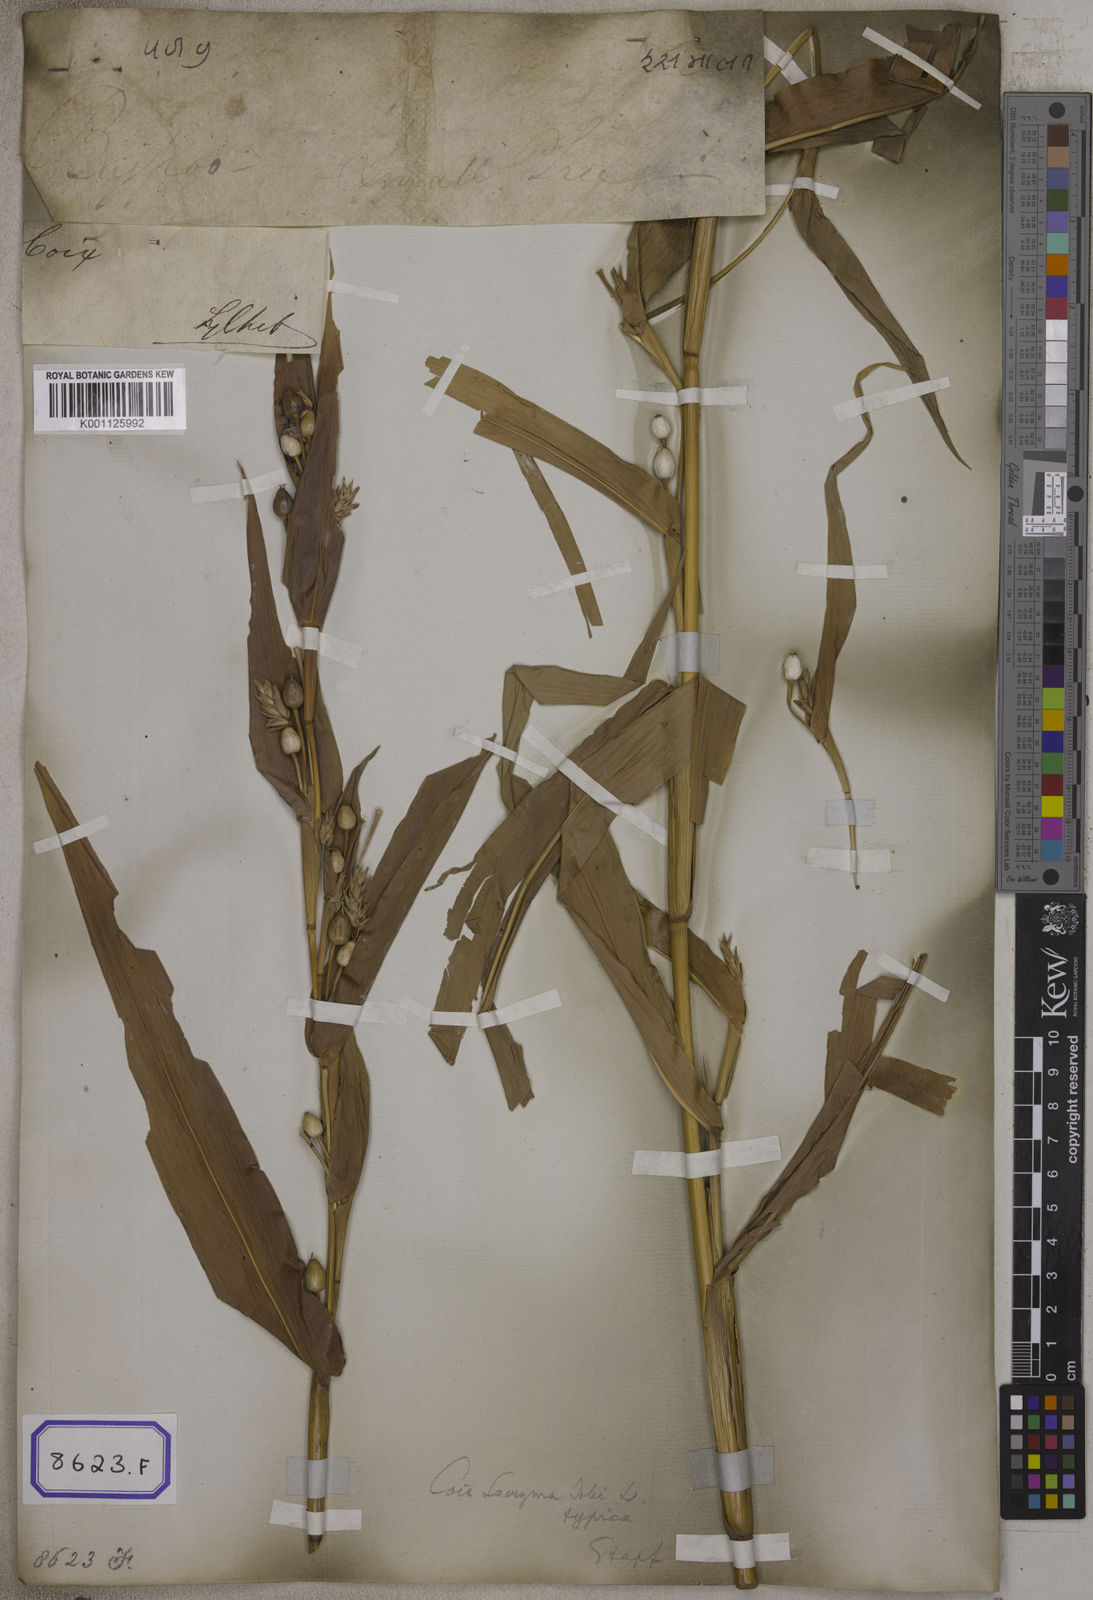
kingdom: Plantae
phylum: Tracheophyta
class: Liliopsida
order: Poales
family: Poaceae
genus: Coix
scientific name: Coix lacryma-jobi
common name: Job's tears
